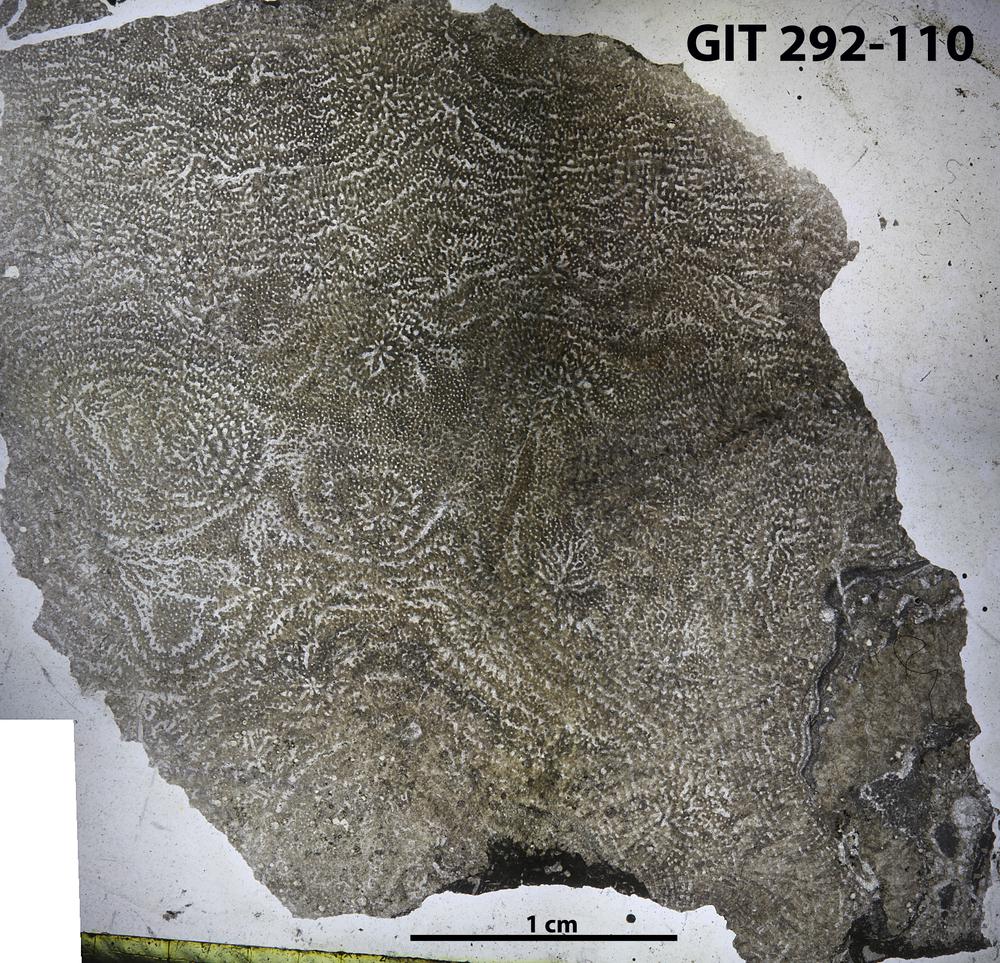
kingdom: Animalia
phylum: Porifera
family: Stromatoporidae
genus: Parallelostroma
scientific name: Parallelostroma
